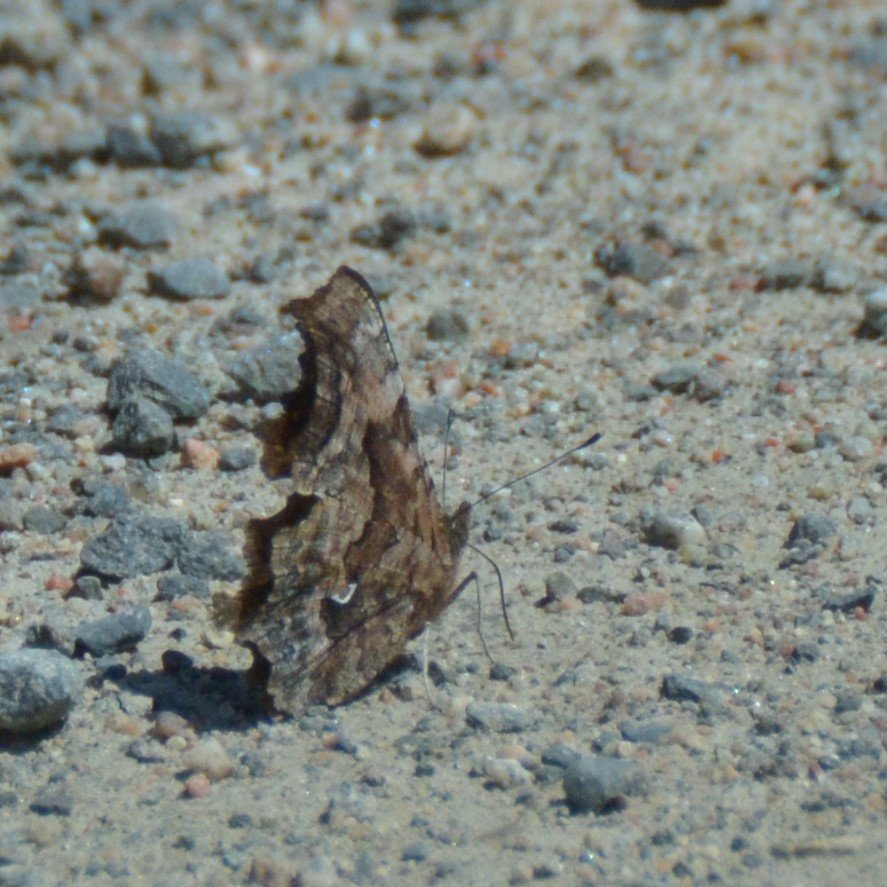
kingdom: Animalia
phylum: Arthropoda
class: Insecta
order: Lepidoptera
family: Nymphalidae
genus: Polygonia
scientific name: Polygonia faunus
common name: Green Comma
